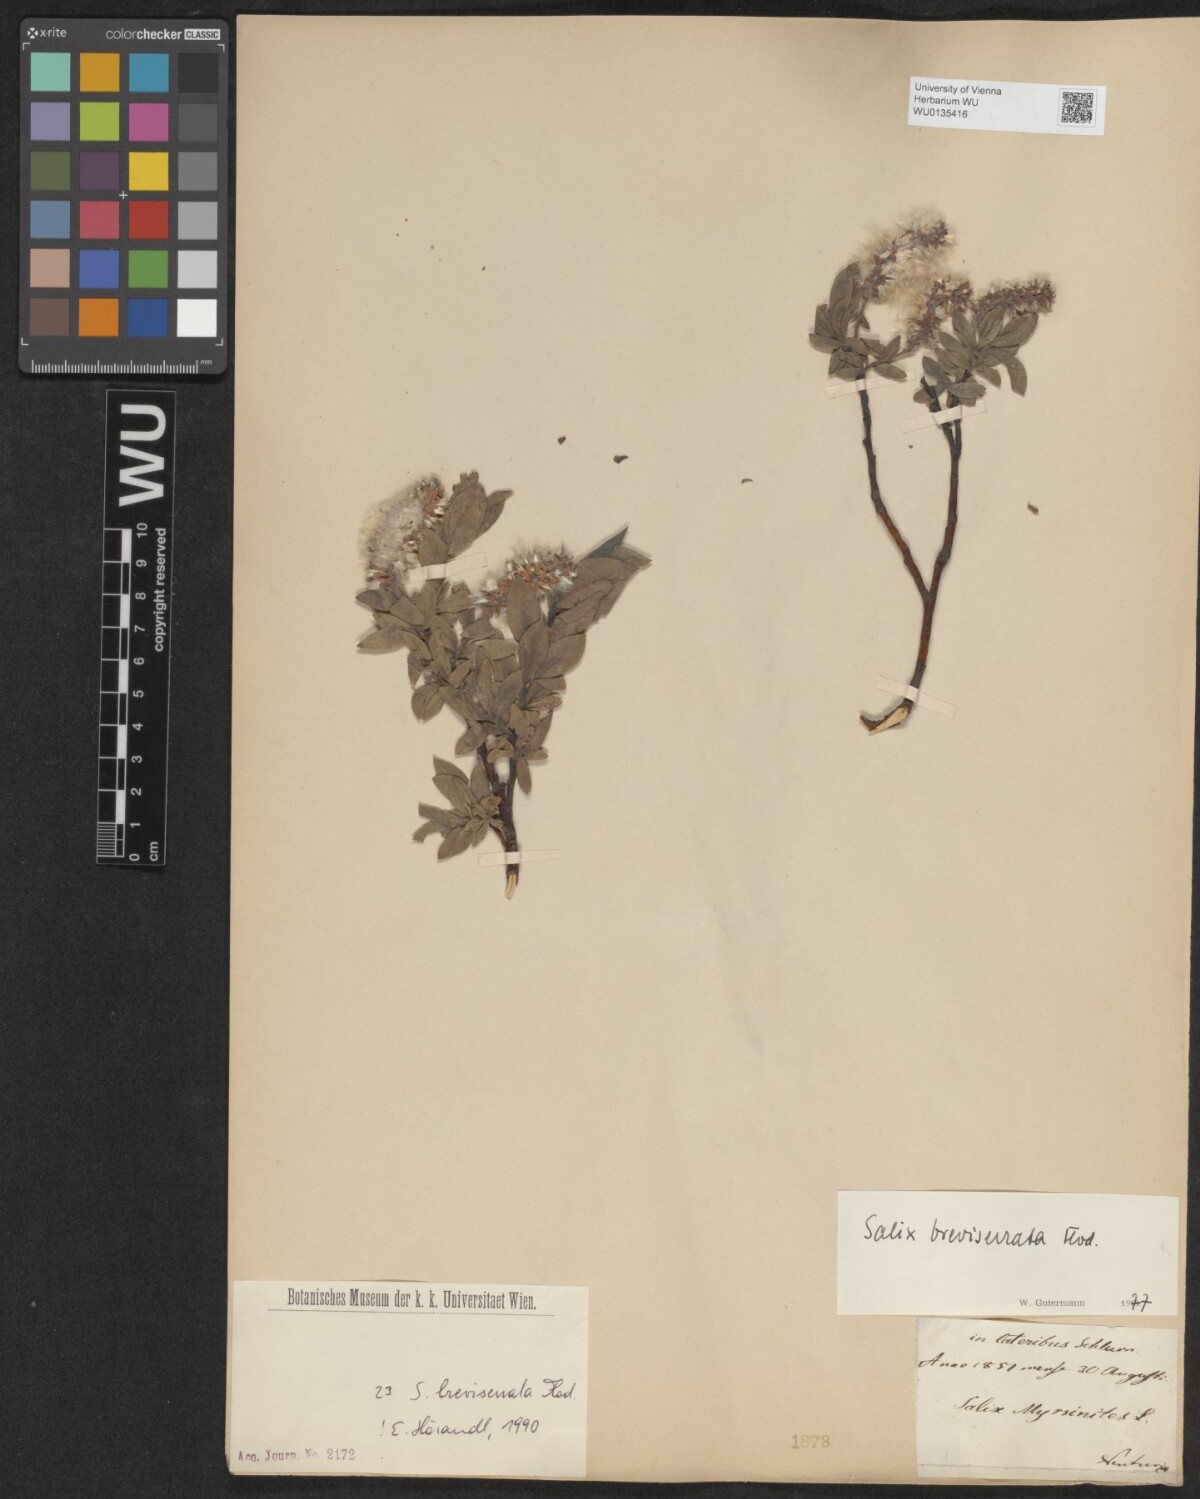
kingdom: Plantae
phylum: Tracheophyta
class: Magnoliopsida
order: Malpighiales
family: Salicaceae
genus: Salix
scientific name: Salix breviserrata
